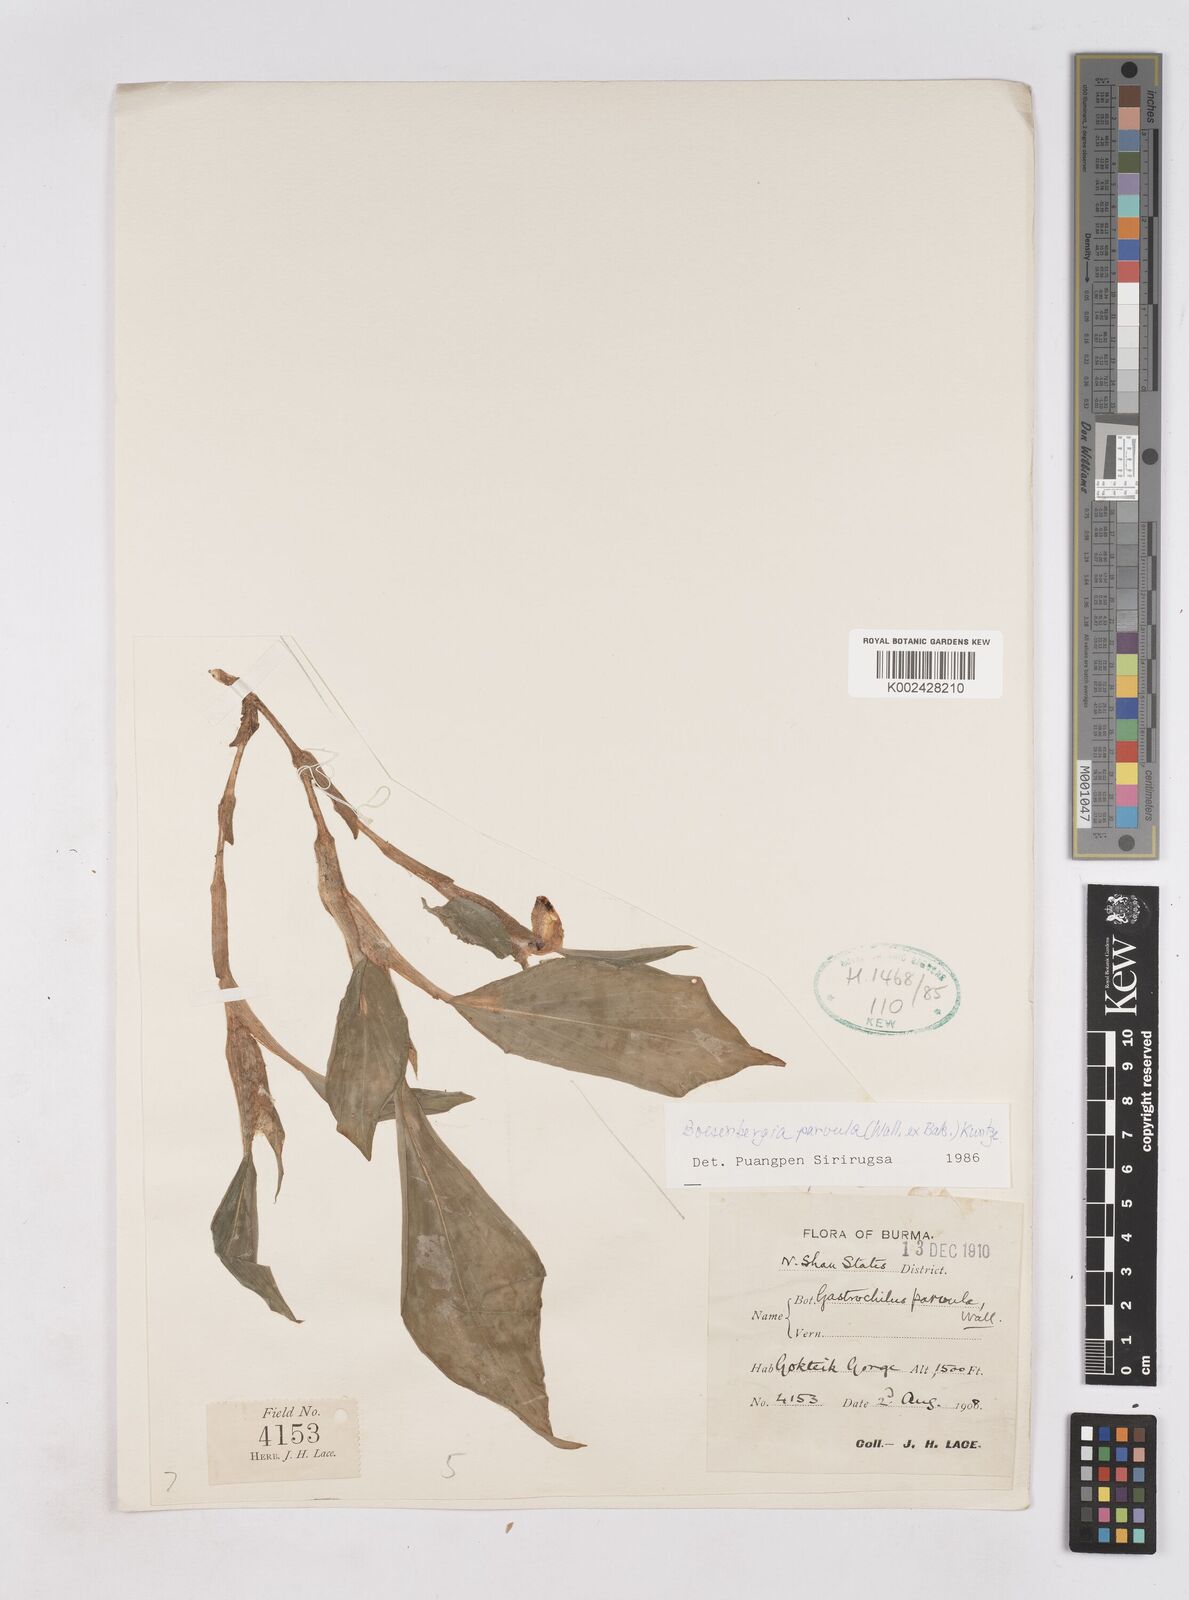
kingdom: Plantae
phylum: Tracheophyta
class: Liliopsida
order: Zingiberales
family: Zingiberaceae
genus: Boesenbergia
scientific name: Boesenbergia parvula
